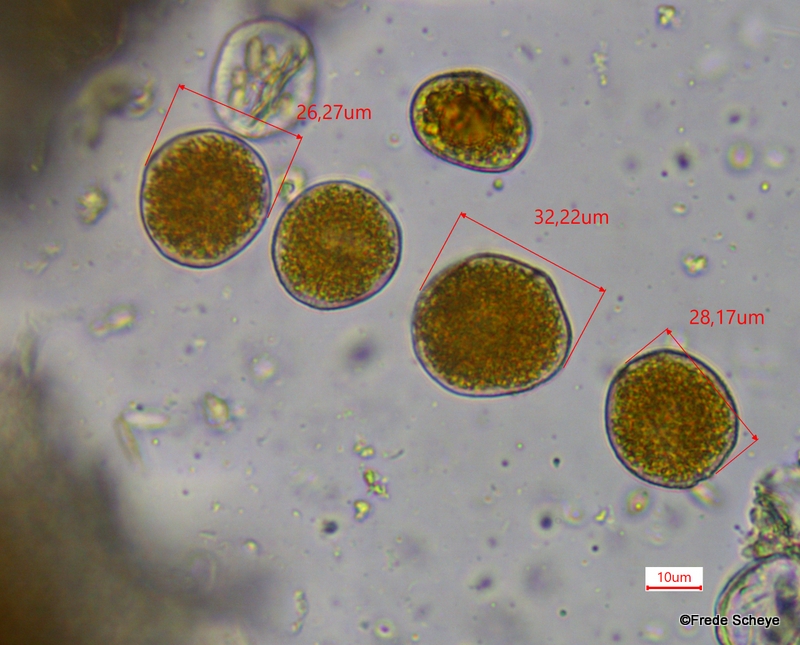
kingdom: Fungi
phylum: Basidiomycota
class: Pucciniomycetes
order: Pucciniales
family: Pucciniaceae
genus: Puccinia
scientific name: Puccinia festucae
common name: gedeblad-tvecellerust
